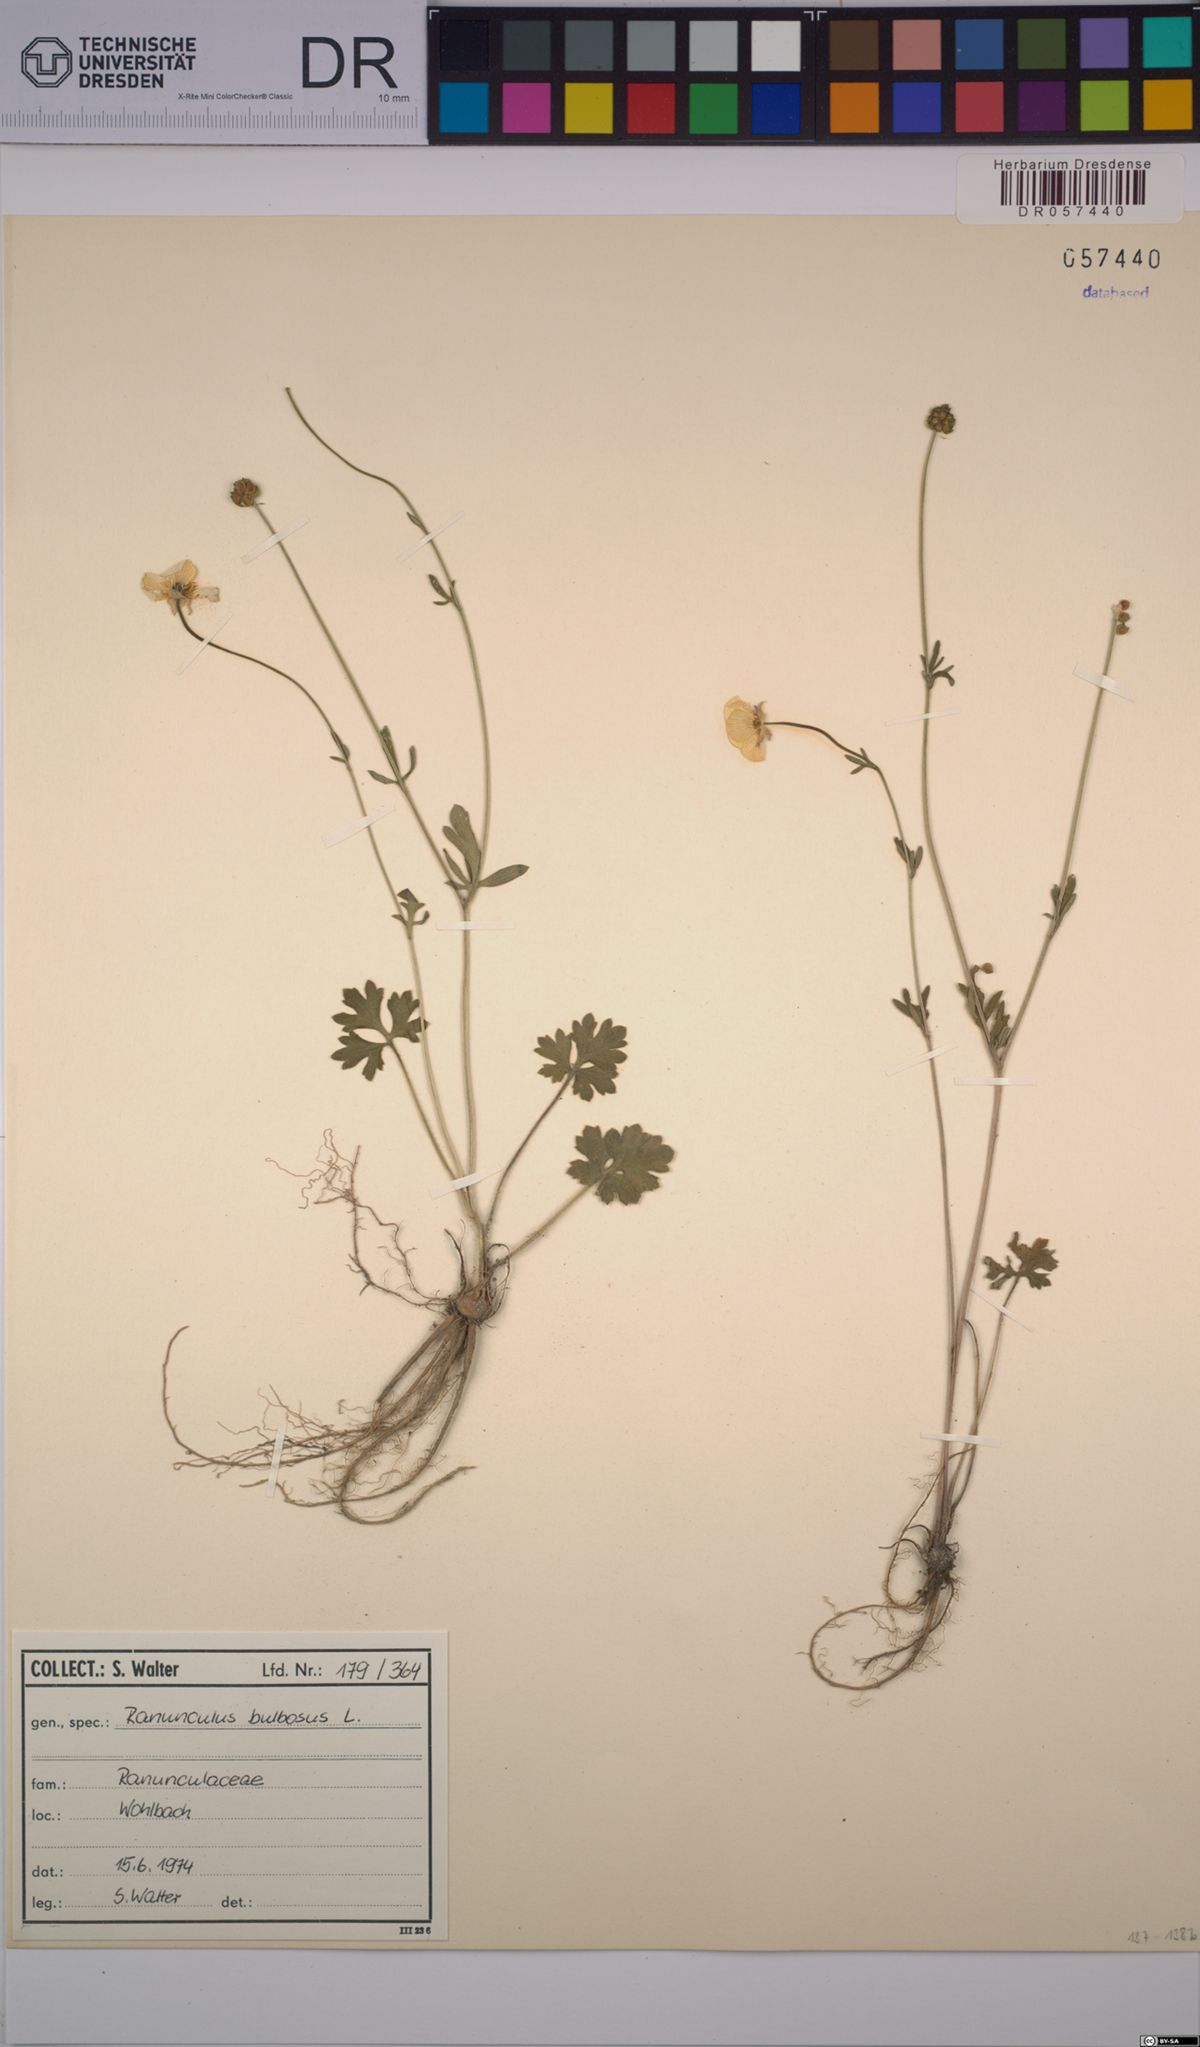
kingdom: Plantae
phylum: Tracheophyta
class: Magnoliopsida
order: Ranunculales
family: Ranunculaceae
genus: Ranunculus
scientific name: Ranunculus bulbosus
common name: Bulbous buttercup
